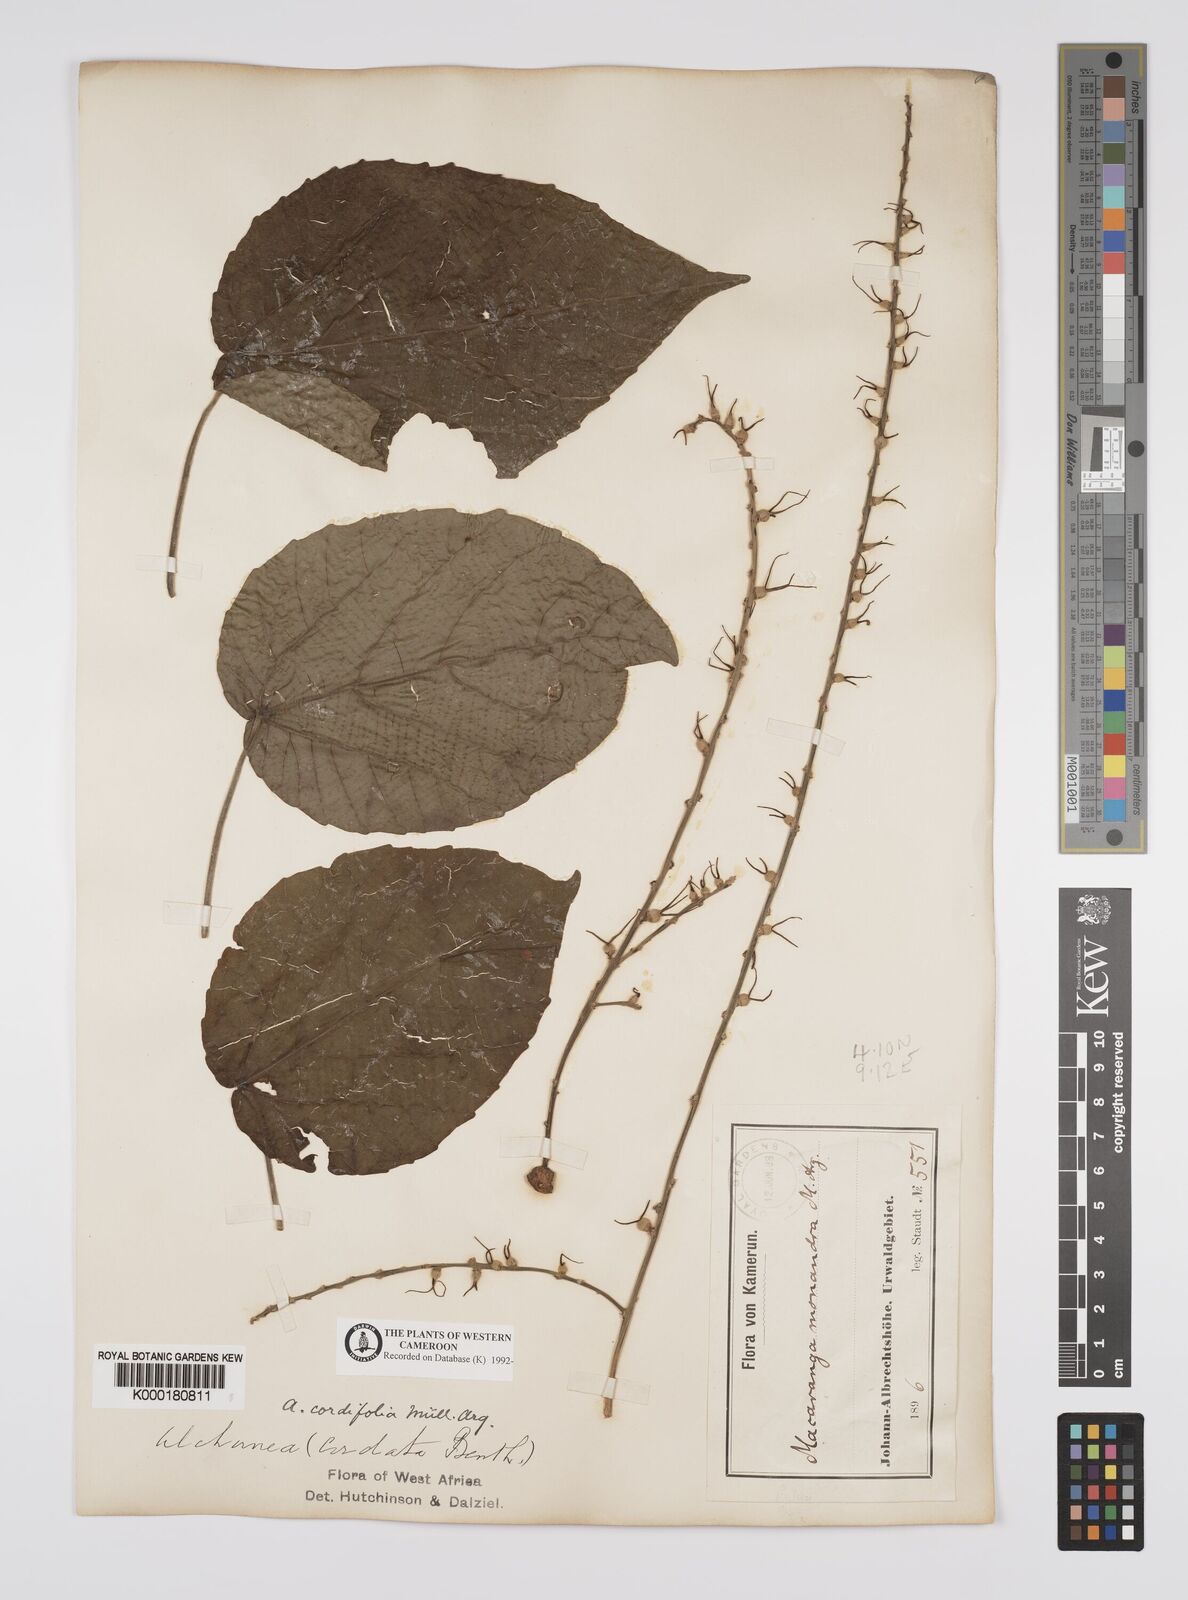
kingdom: Plantae
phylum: Tracheophyta
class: Magnoliopsida
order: Malpighiales
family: Euphorbiaceae
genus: Alchornea
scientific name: Alchornea
